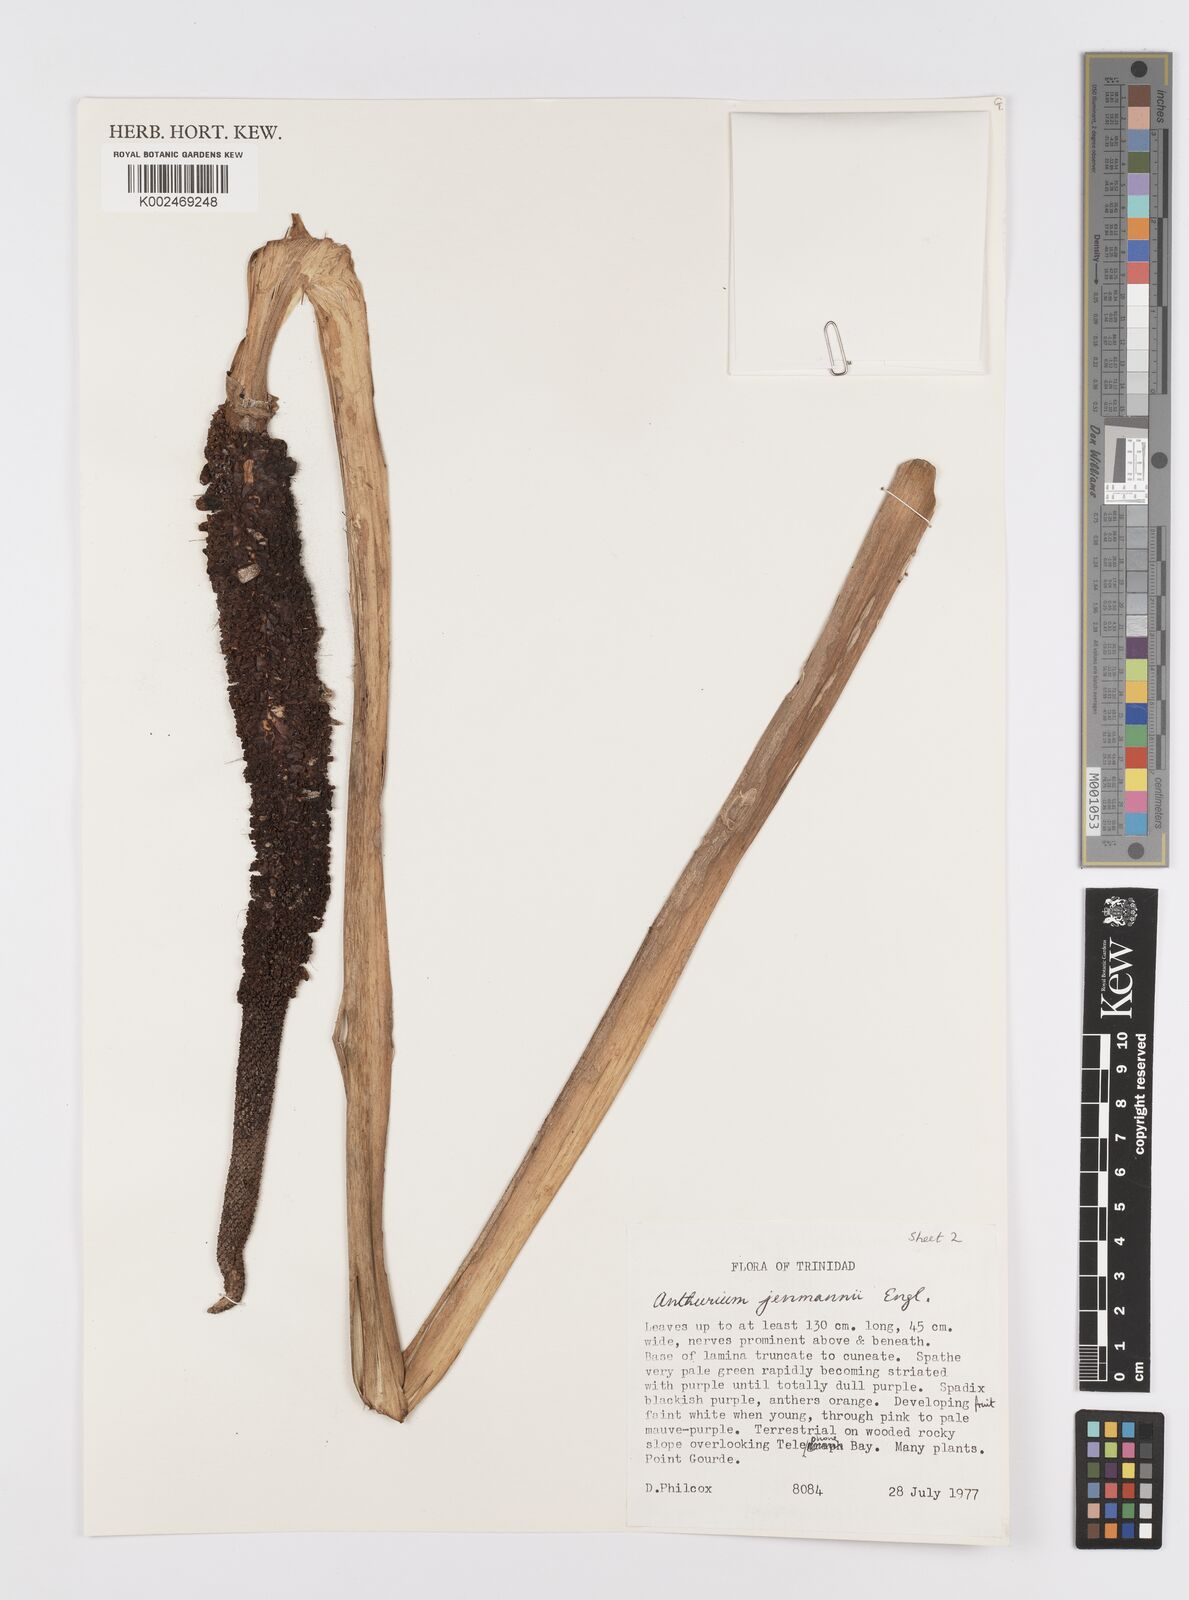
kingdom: Plantae
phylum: Tracheophyta
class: Liliopsida
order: Alismatales
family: Araceae
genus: Anthurium
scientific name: Anthurium jenmanii
